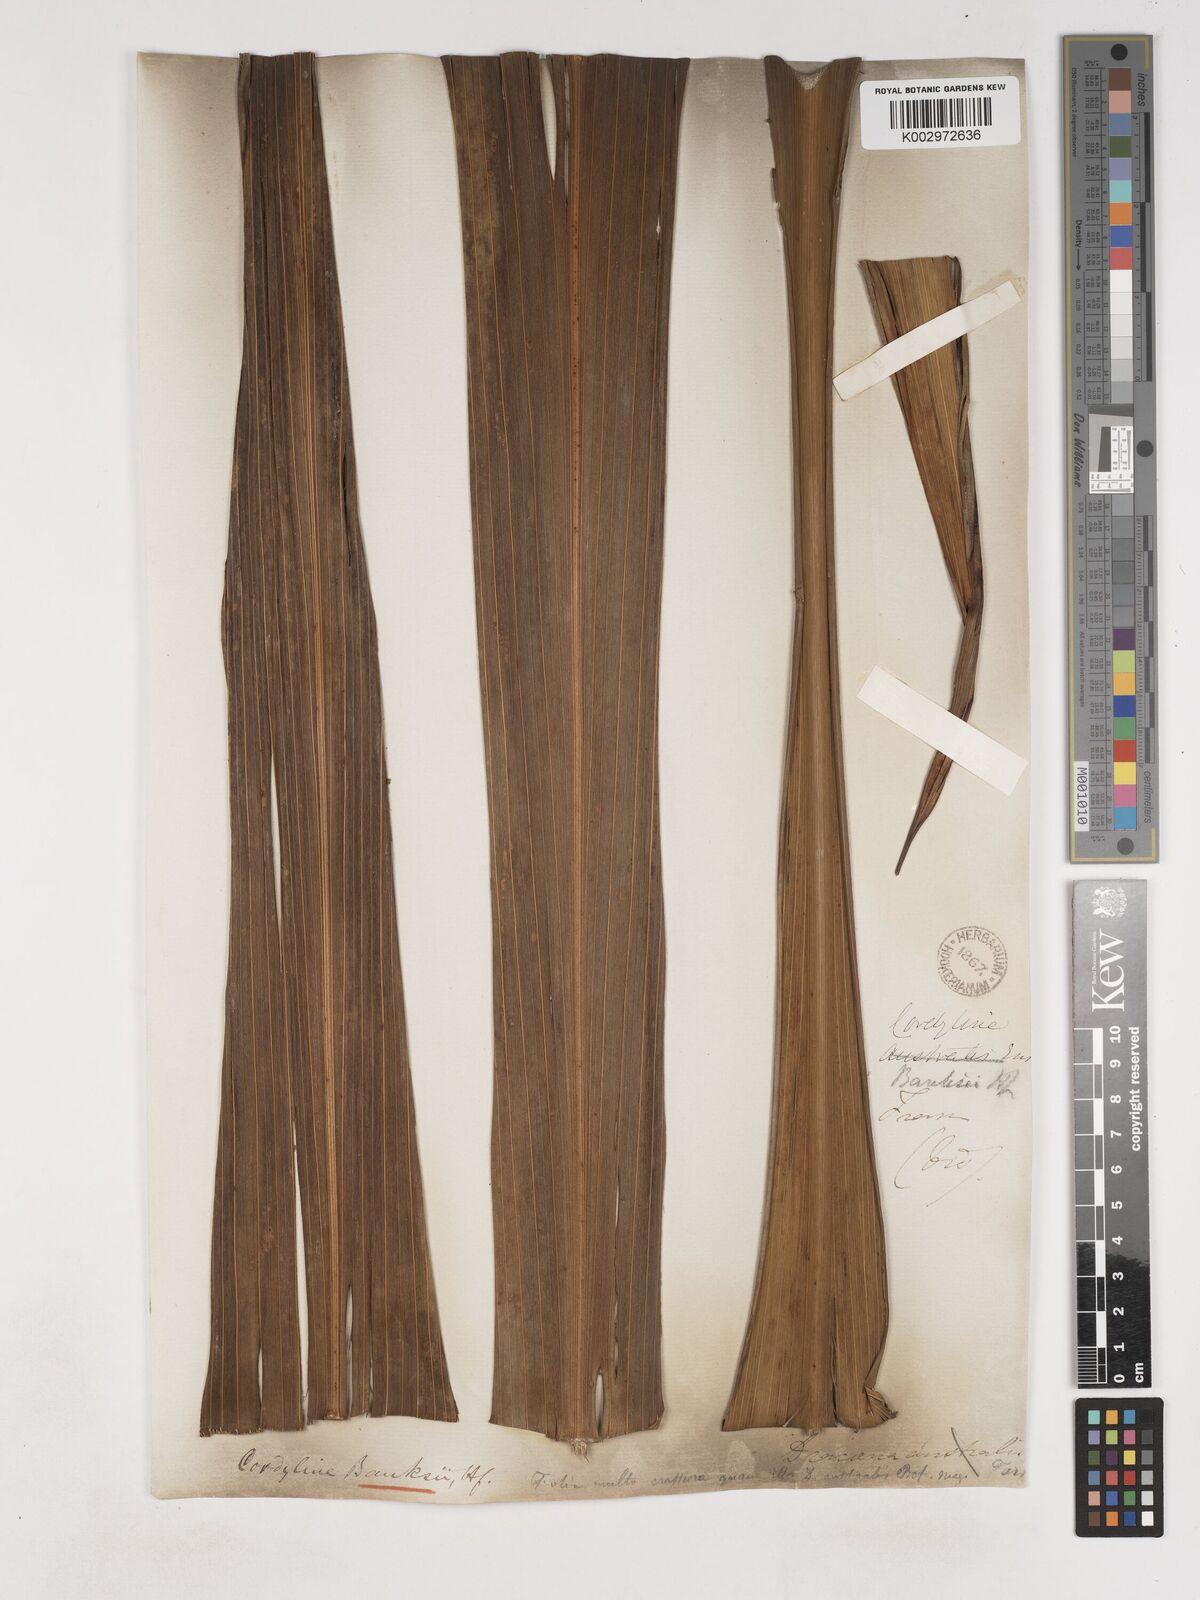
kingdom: Plantae
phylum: Tracheophyta
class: Liliopsida
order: Asparagales
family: Asparagaceae
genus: Cordyline
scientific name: Cordyline banksii
